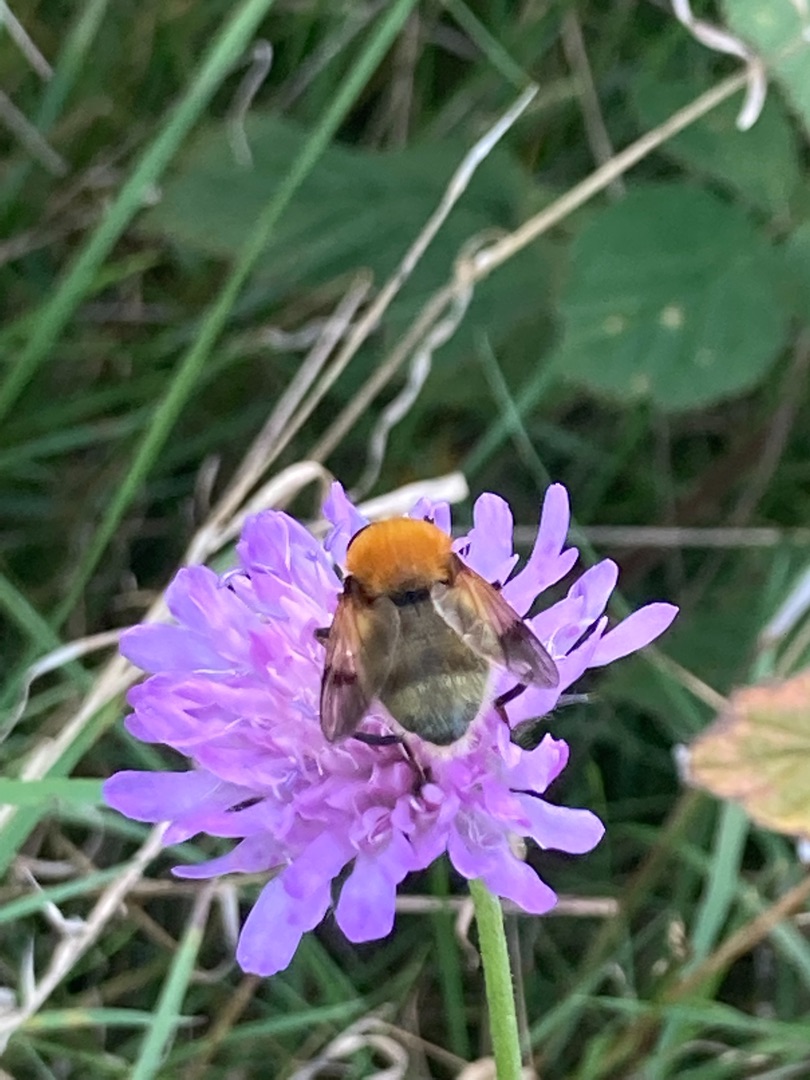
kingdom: Animalia
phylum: Arthropoda
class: Insecta
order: Diptera
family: Syrphidae
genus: Sericomyia
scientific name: Sericomyia superbiens
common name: Brun bjørnesvirreflue
